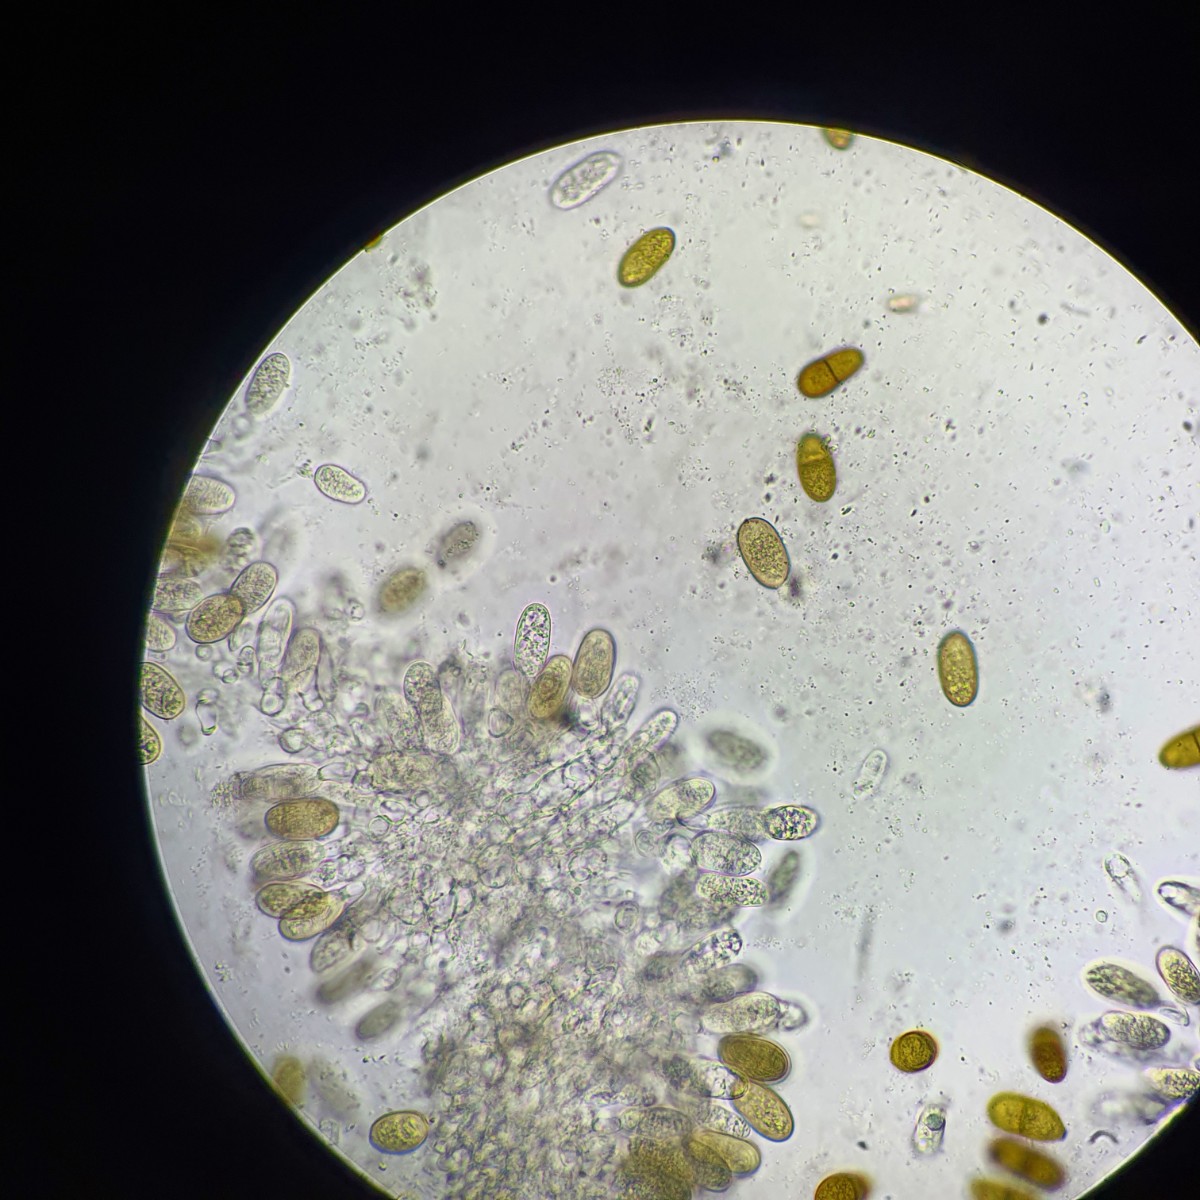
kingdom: Fungi
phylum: Ascomycota
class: Dothideomycetes
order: Botryosphaeriales
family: Botryosphaeriaceae
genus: Diplodia
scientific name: Diplodia
